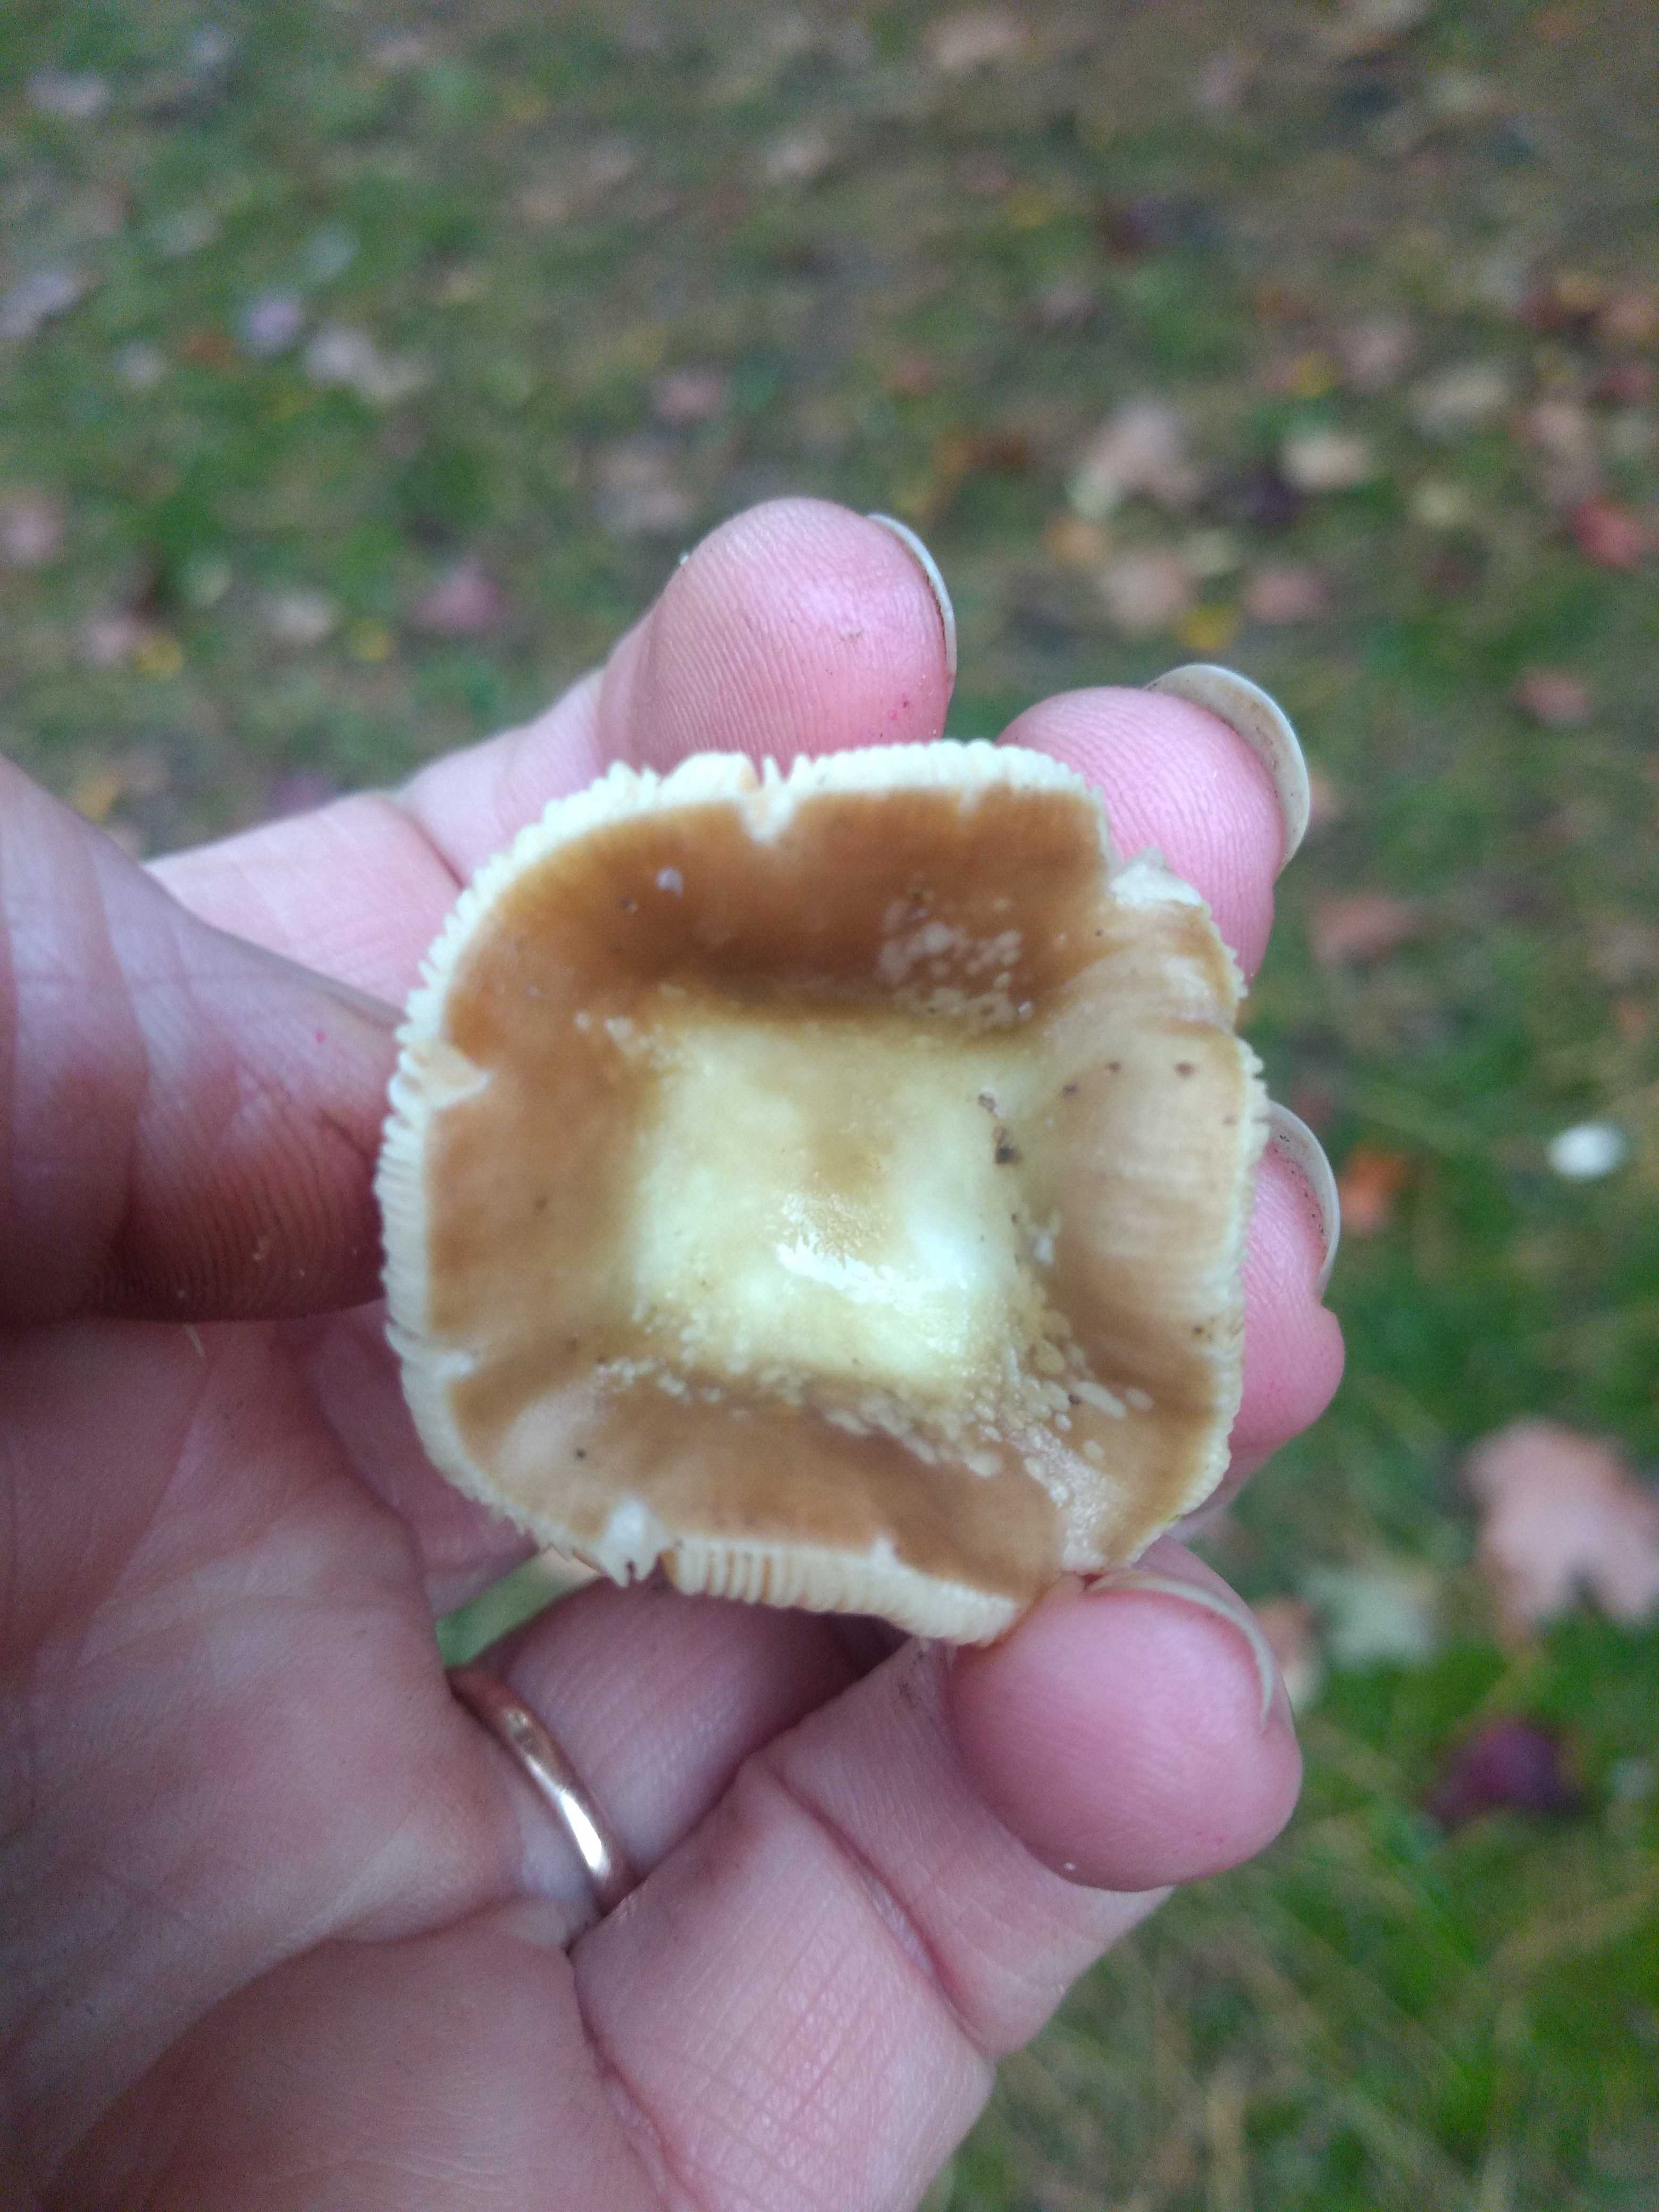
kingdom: Fungi
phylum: Basidiomycota
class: Agaricomycetes
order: Russulales
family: Russulaceae
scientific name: Russulaceae
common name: skørhatfamilien
